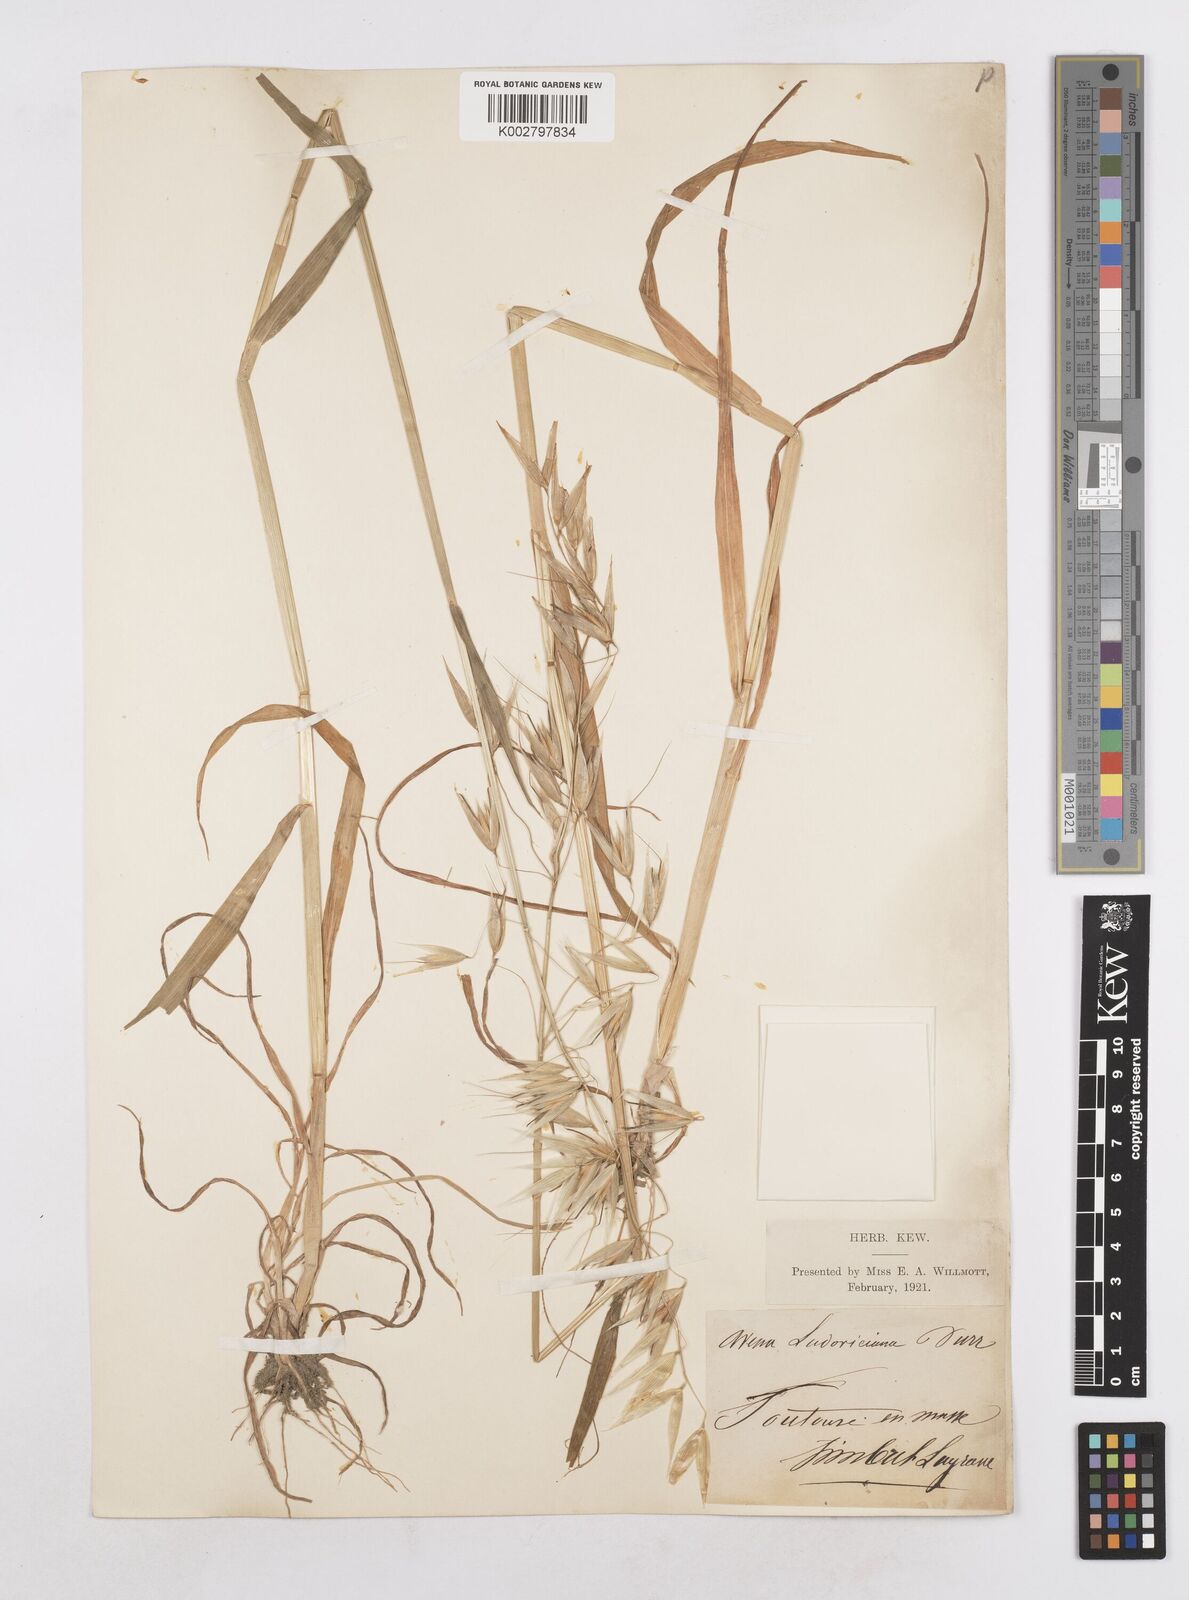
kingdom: Plantae
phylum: Tracheophyta
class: Liliopsida
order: Poales
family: Poaceae
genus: Avena
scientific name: Avena sterilis
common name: Animated oat
